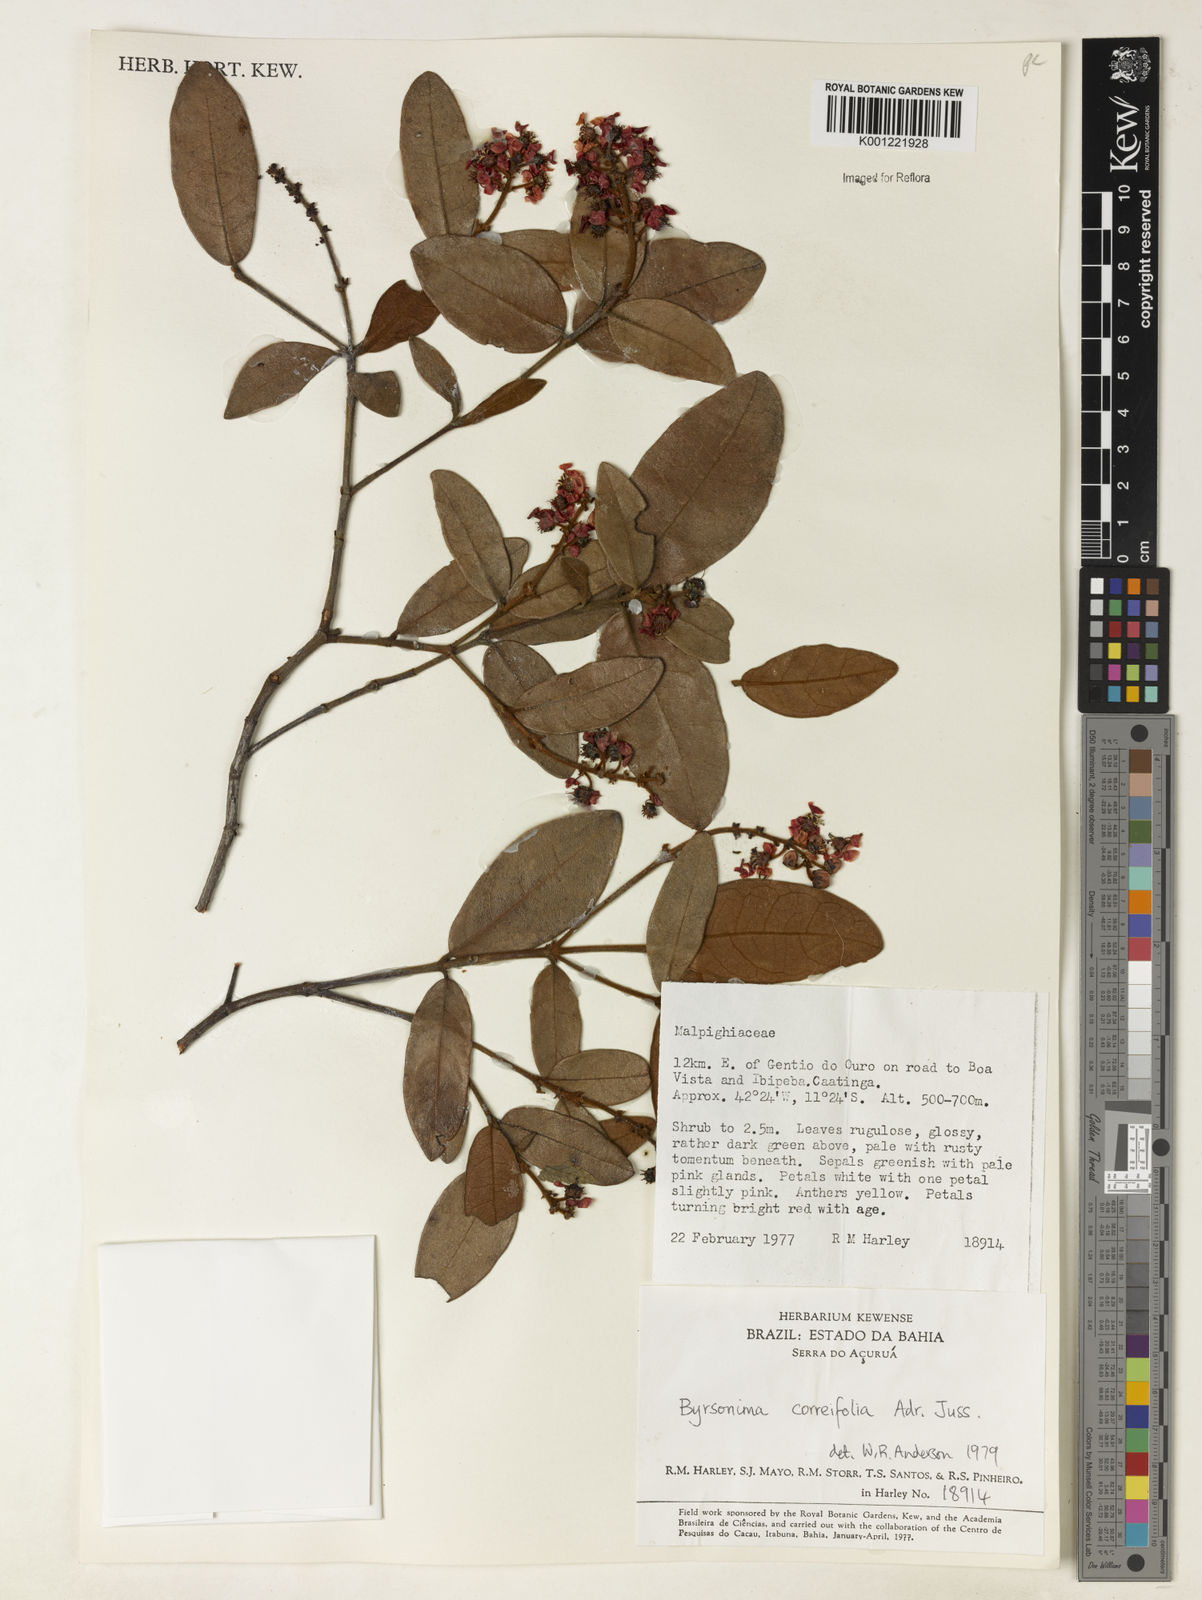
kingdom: Plantae
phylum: Tracheophyta
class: Magnoliopsida
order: Malpighiales
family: Malpighiaceae
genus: Byrsonima
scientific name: Byrsonima correifolia
